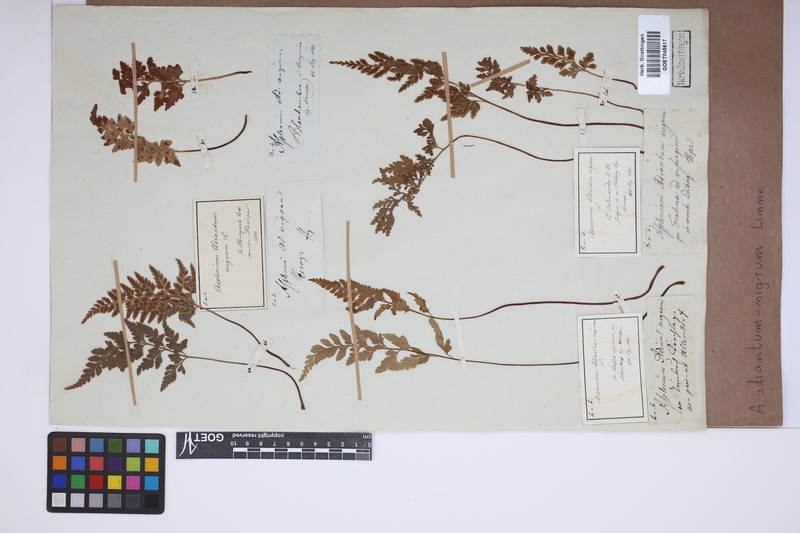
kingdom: Plantae
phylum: Tracheophyta
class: Polypodiopsida
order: Polypodiales
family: Aspleniaceae
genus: Asplenium
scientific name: Asplenium adiantum-nigrum
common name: Black spleenwort
